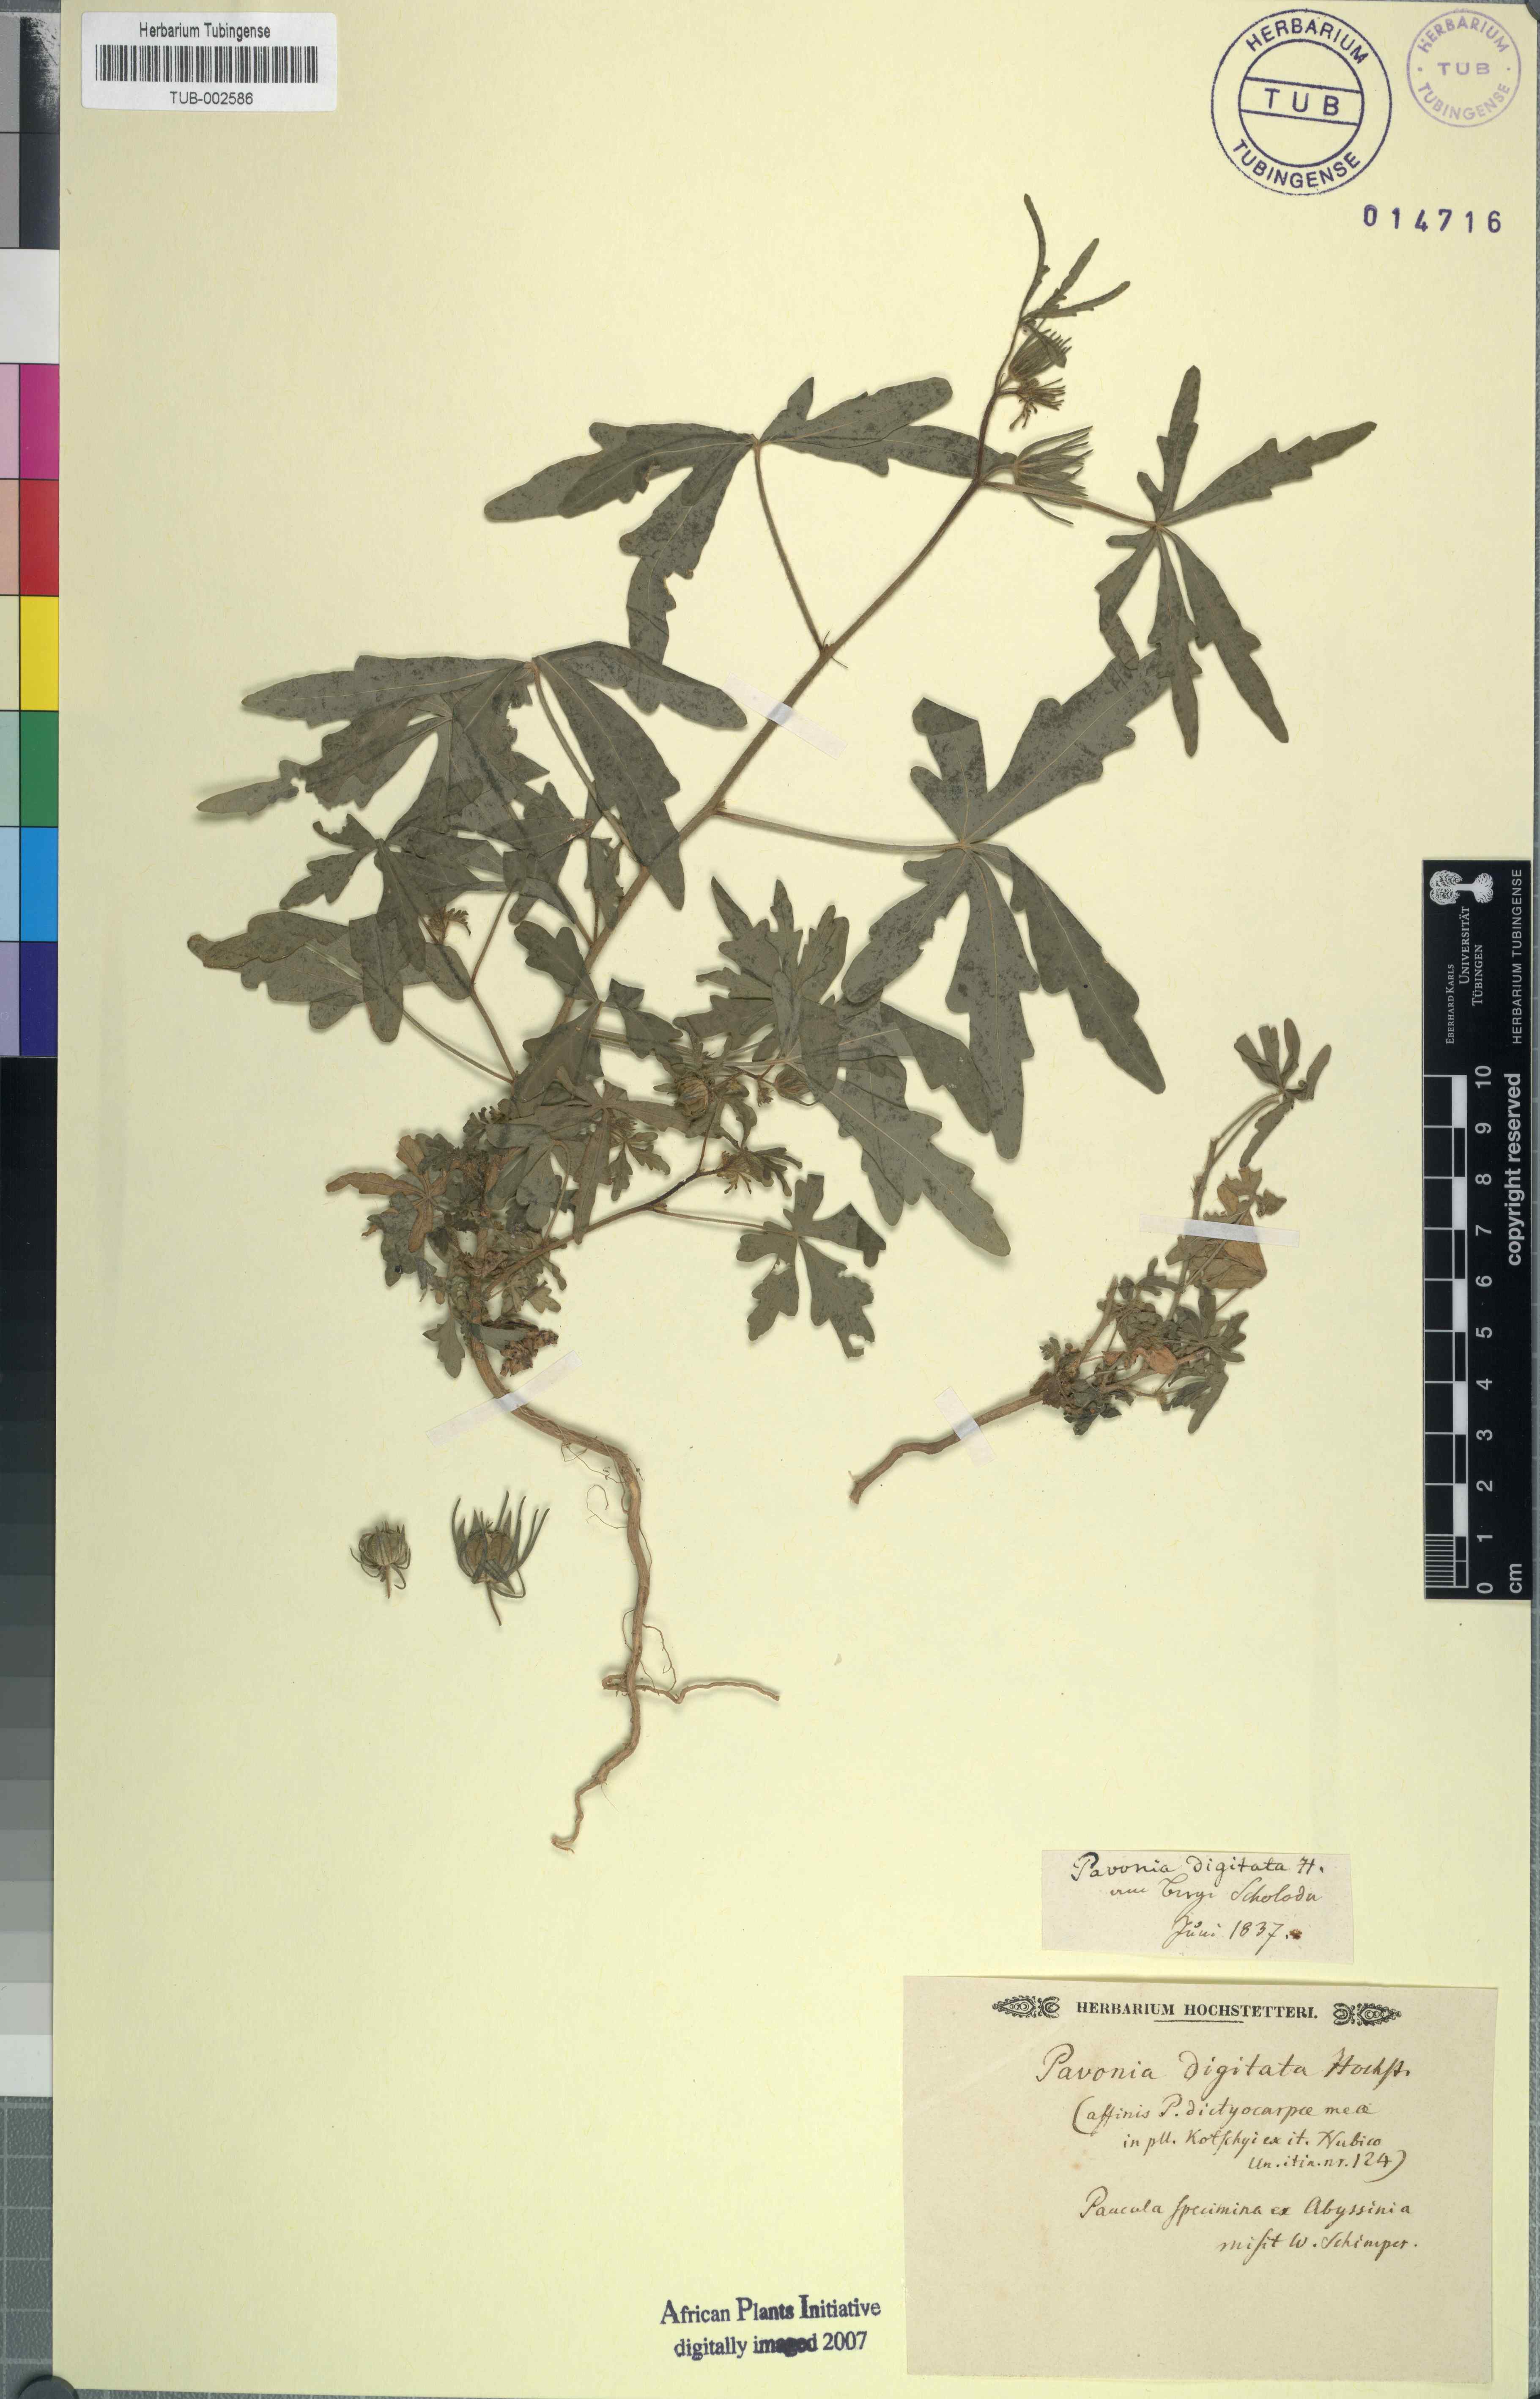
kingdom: Plantae
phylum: Tracheophyta
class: Magnoliopsida
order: Malvales
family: Malvaceae
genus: Pavonia
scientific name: Pavonia zeylonica
